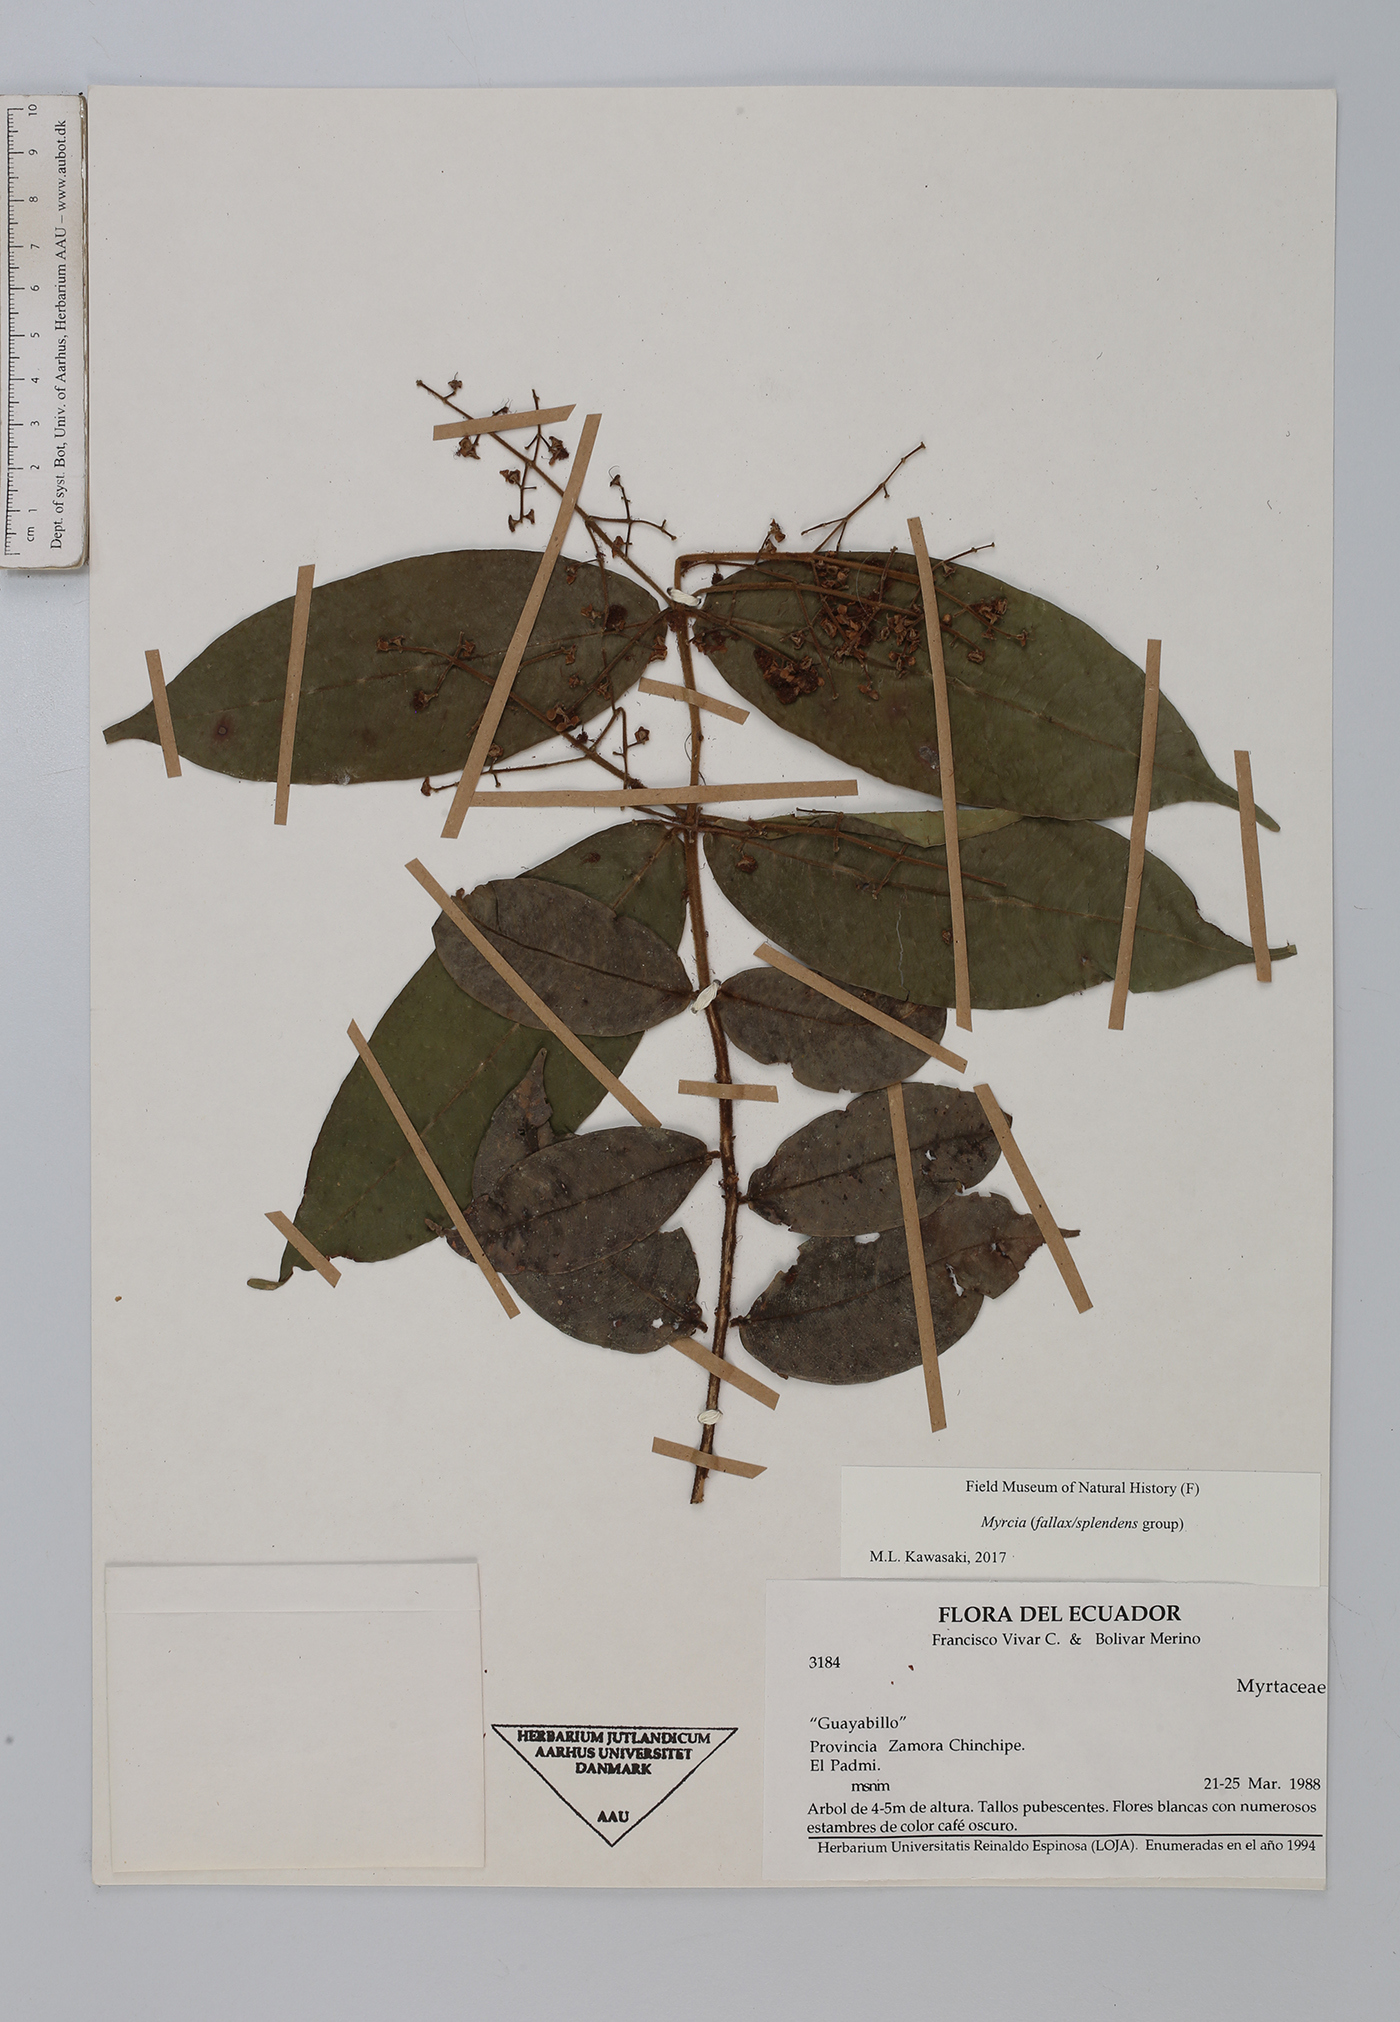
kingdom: Plantae
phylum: Tracheophyta
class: Magnoliopsida
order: Myrtales
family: Myrtaceae
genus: Myrcia
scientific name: Myrcia
